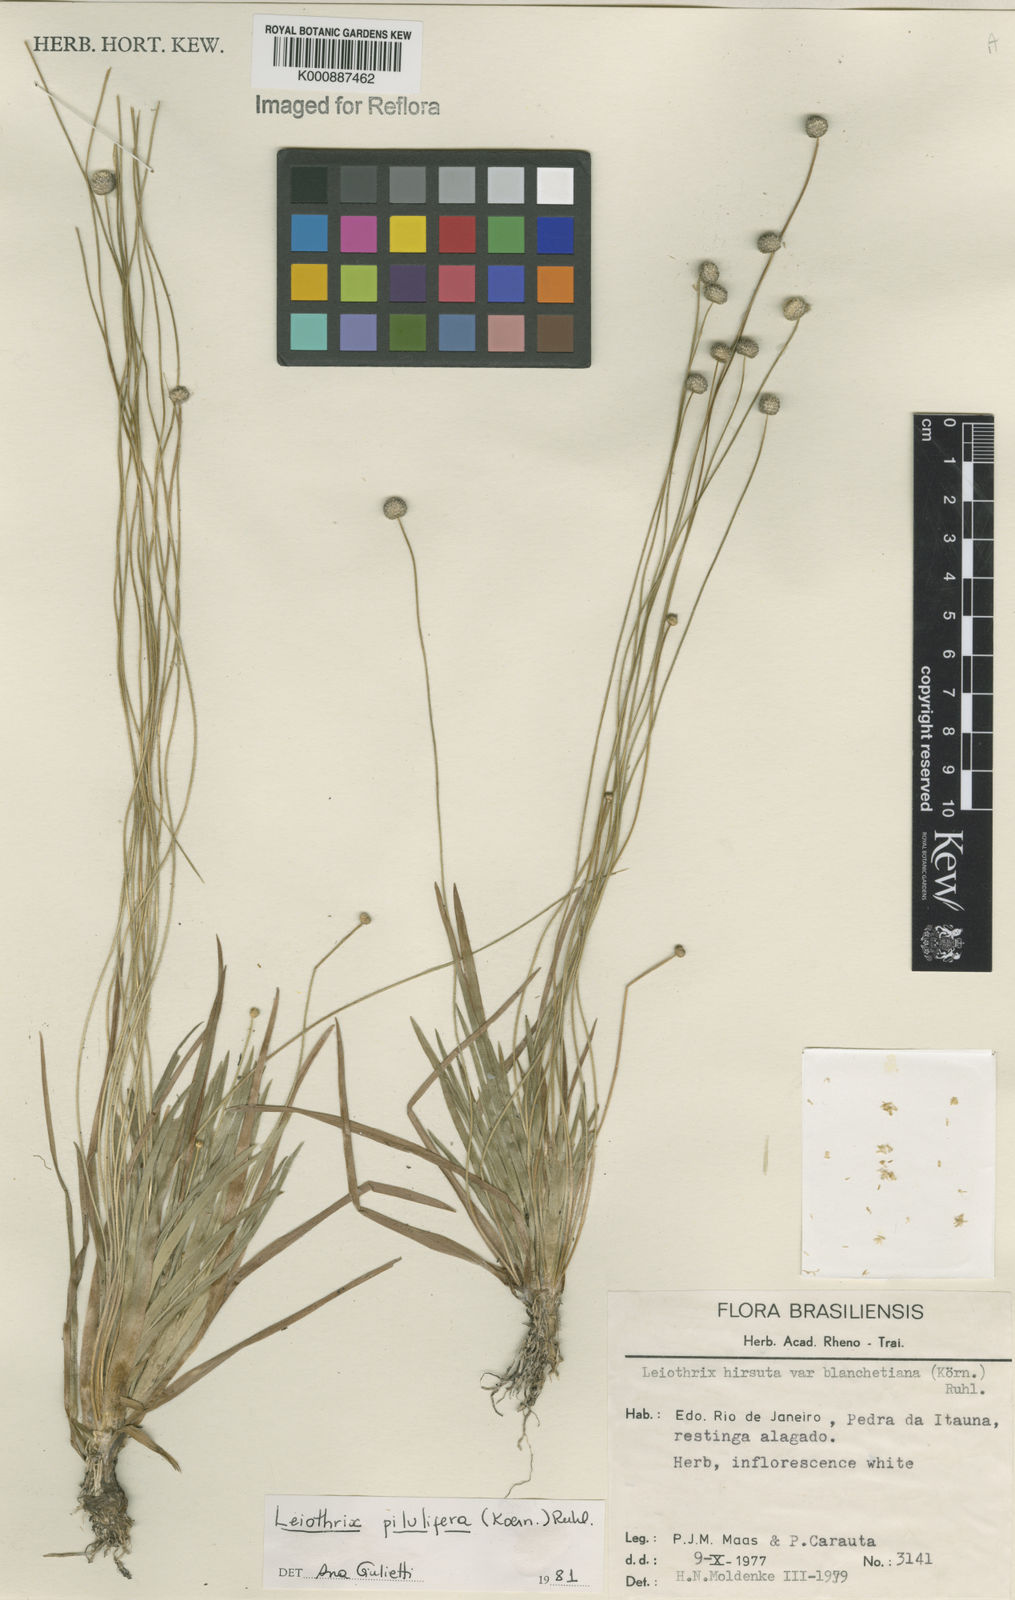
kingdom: Plantae
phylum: Tracheophyta
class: Liliopsida
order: Poales
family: Eriocaulaceae
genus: Leiothrix
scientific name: Leiothrix
